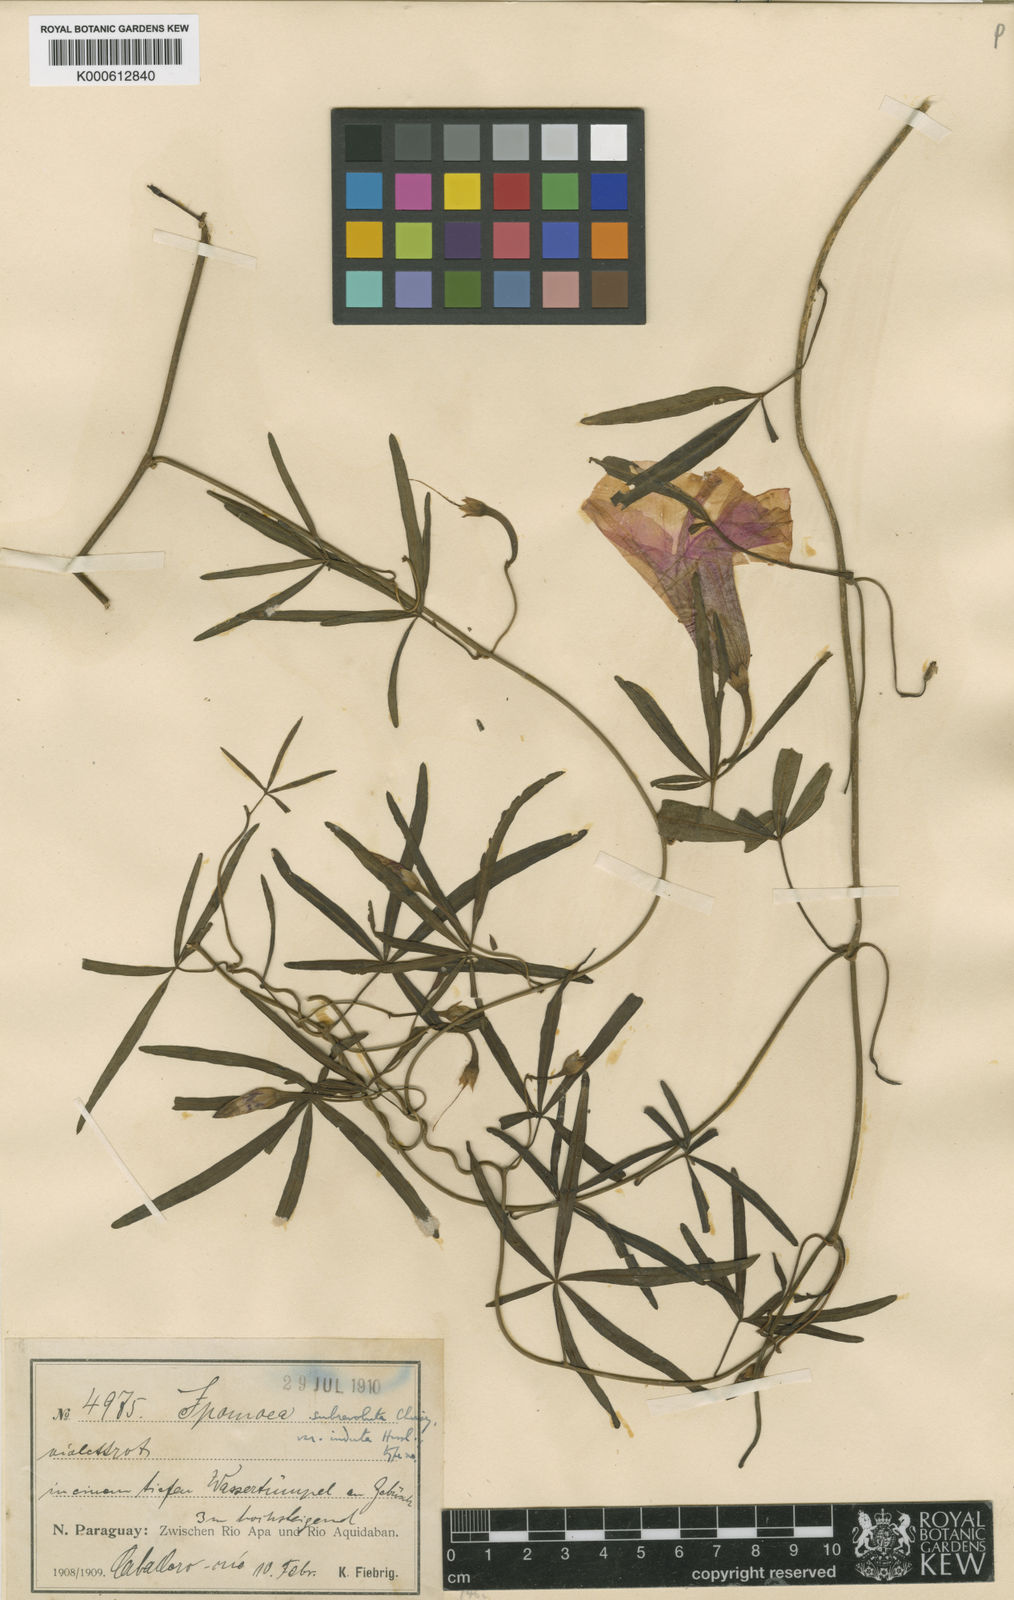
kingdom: Plantae
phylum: Tracheophyta
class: Magnoliopsida
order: Solanales
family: Convolvulaceae
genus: Ipomoea
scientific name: Ipomoea subrevoluta
